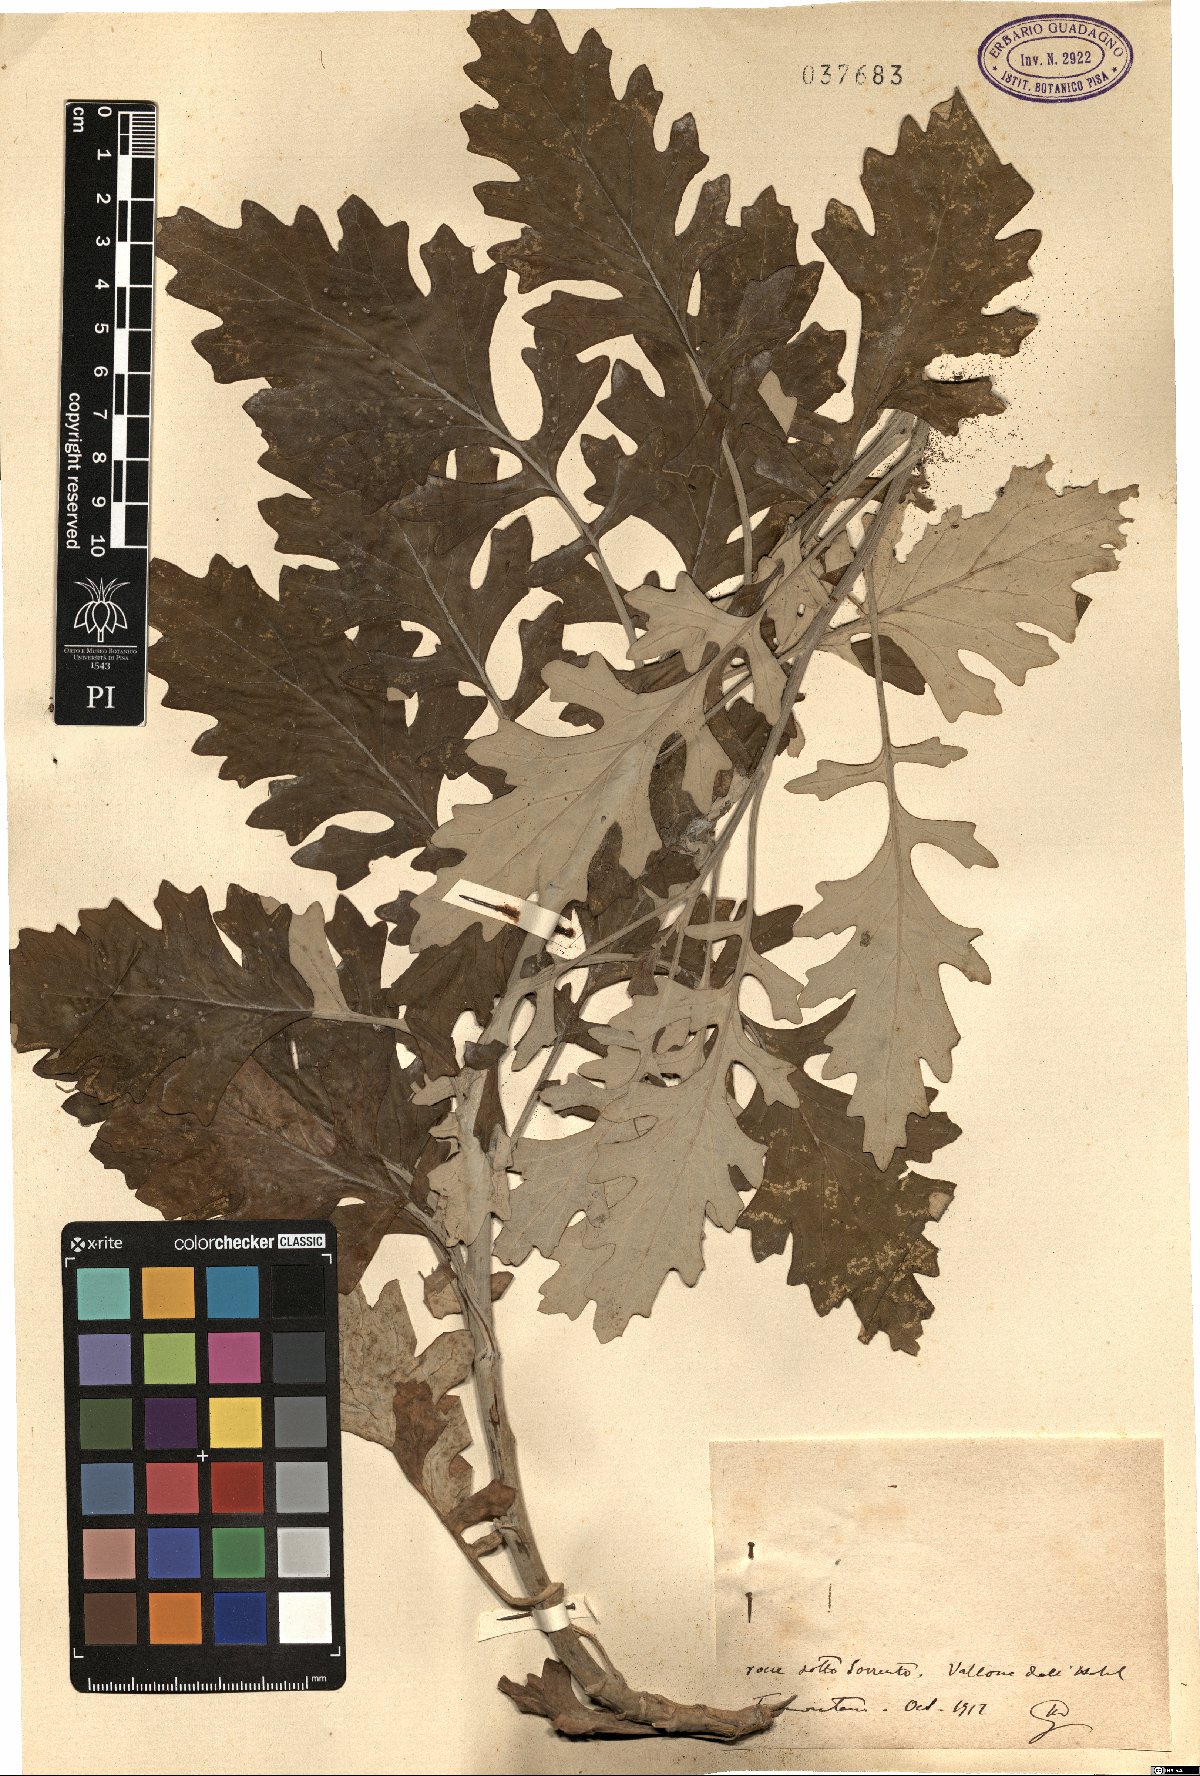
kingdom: Plantae
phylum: Tracheophyta
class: Magnoliopsida
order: Asterales
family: Asteraceae
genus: Cineraria
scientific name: Cineraria
